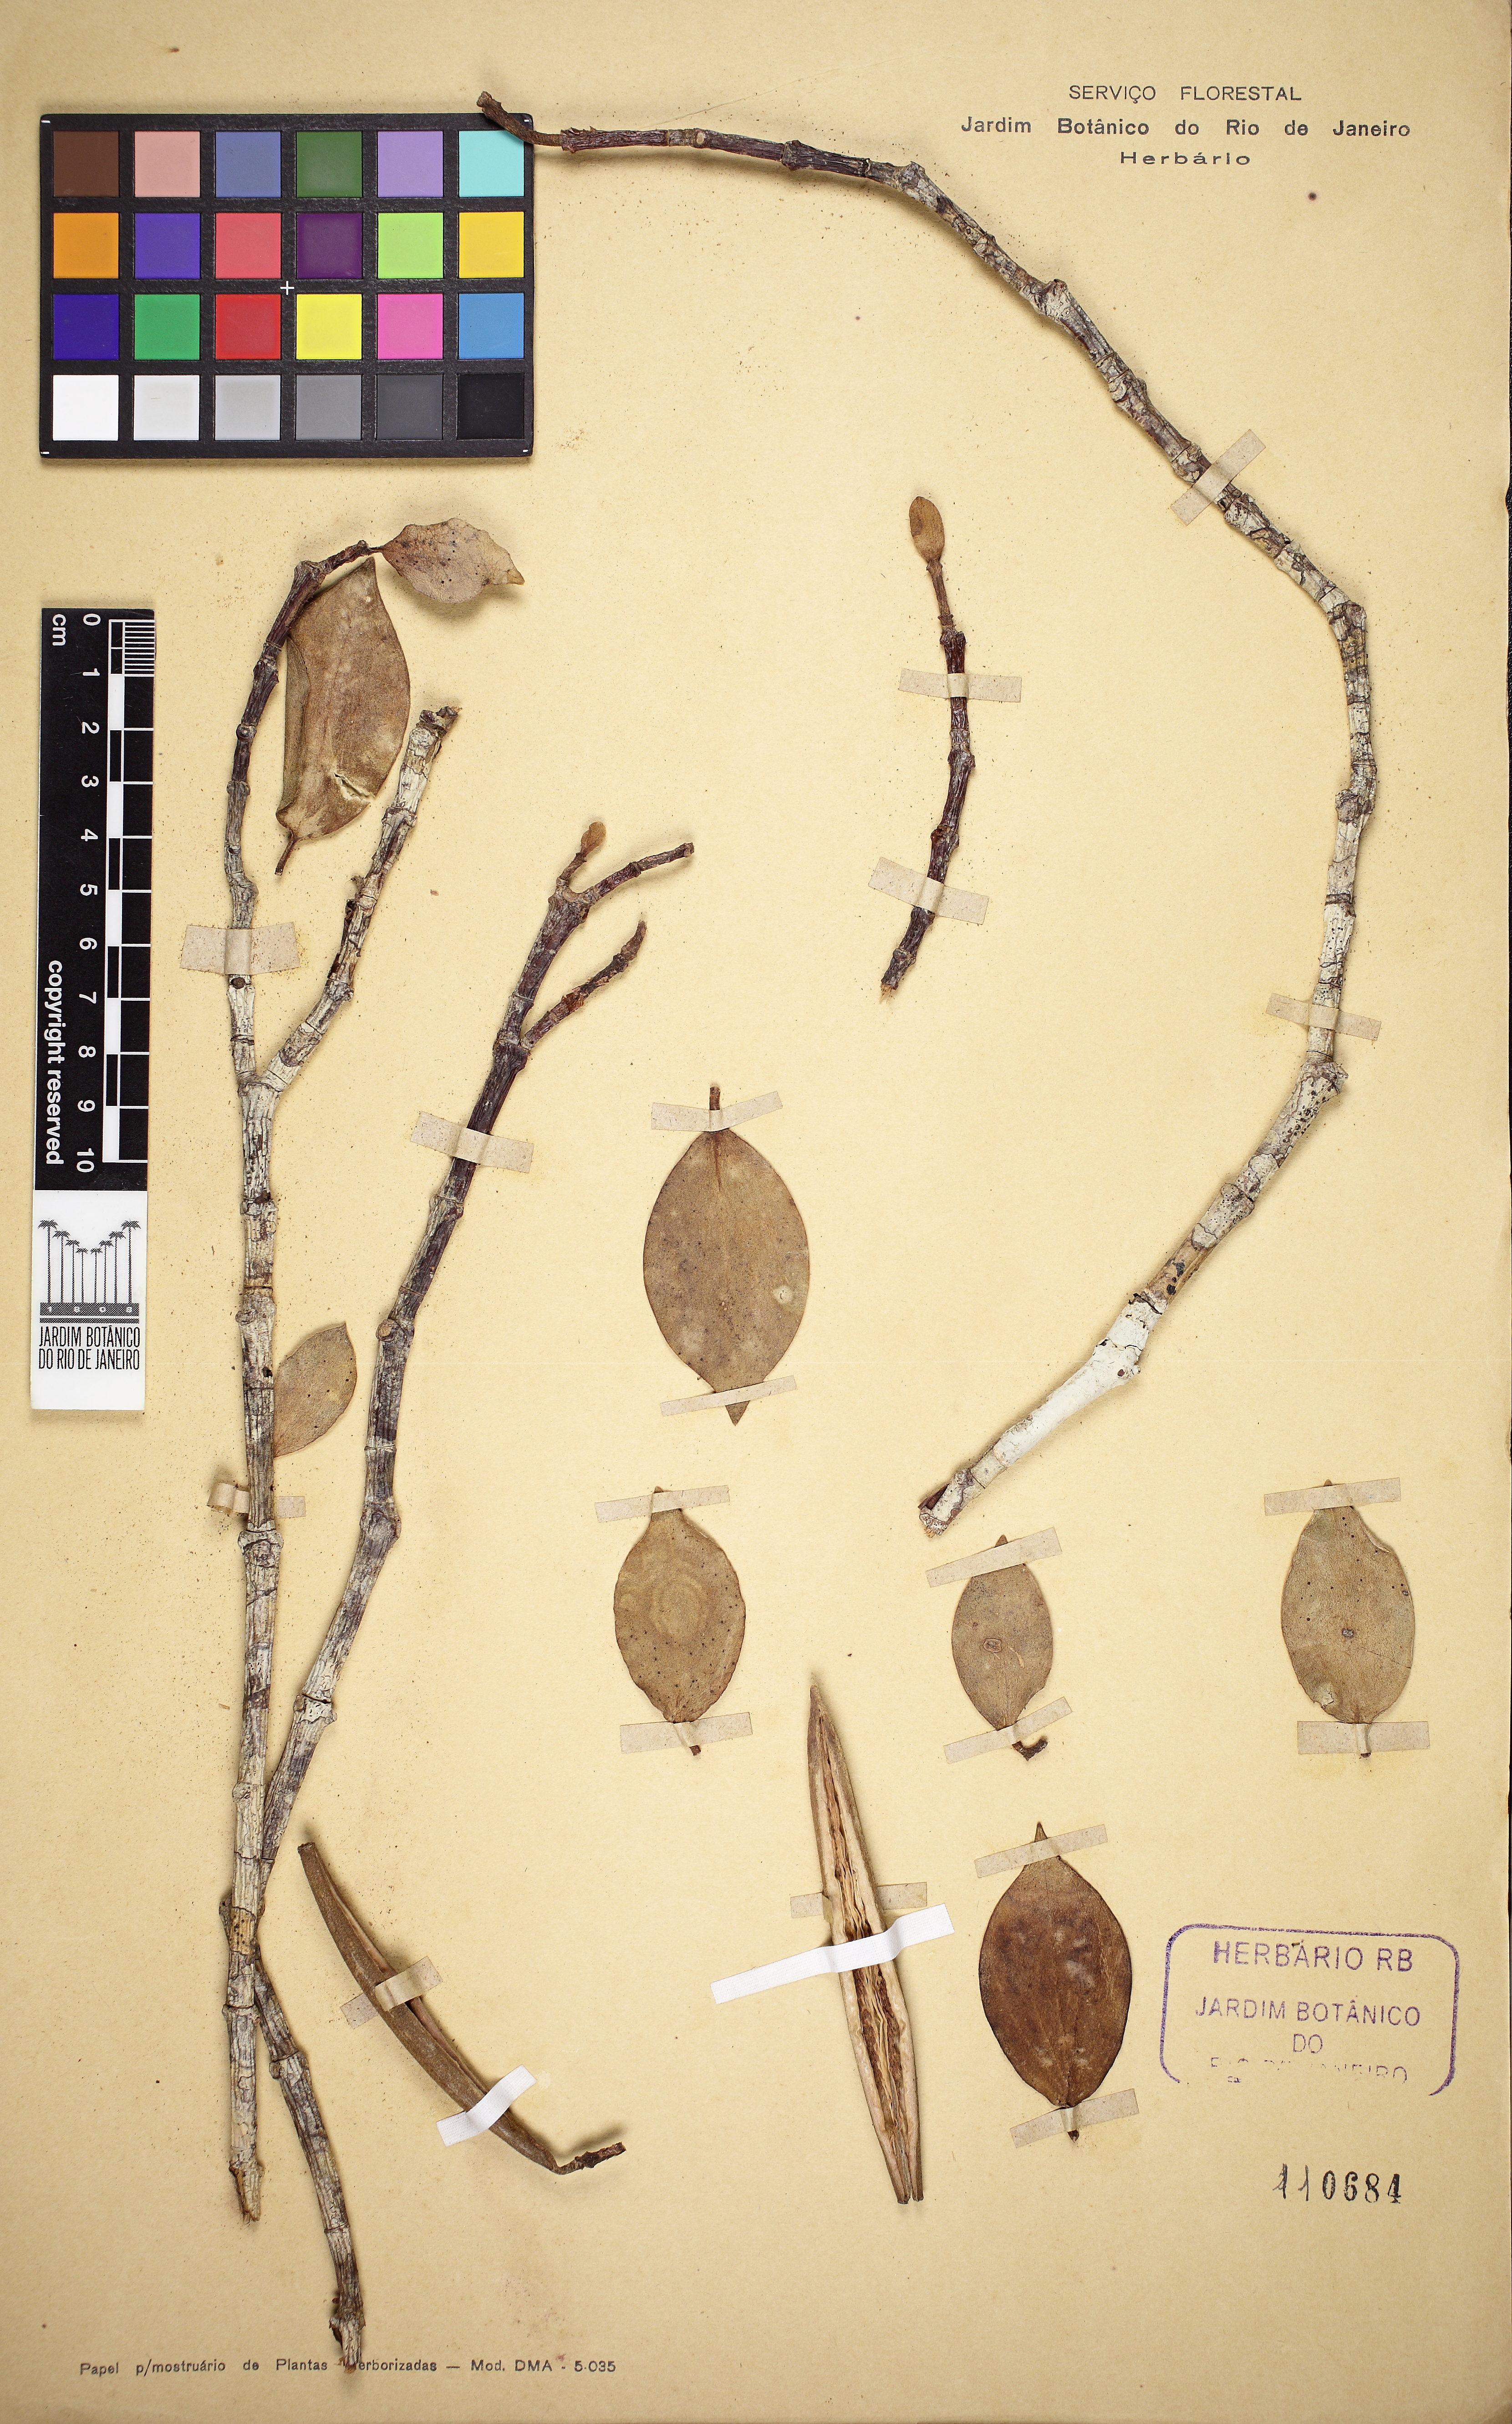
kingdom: Plantae
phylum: Tracheophyta
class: Magnoliopsida
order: Gentianales
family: Rubiaceae
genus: Hillia
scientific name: Hillia ulei
